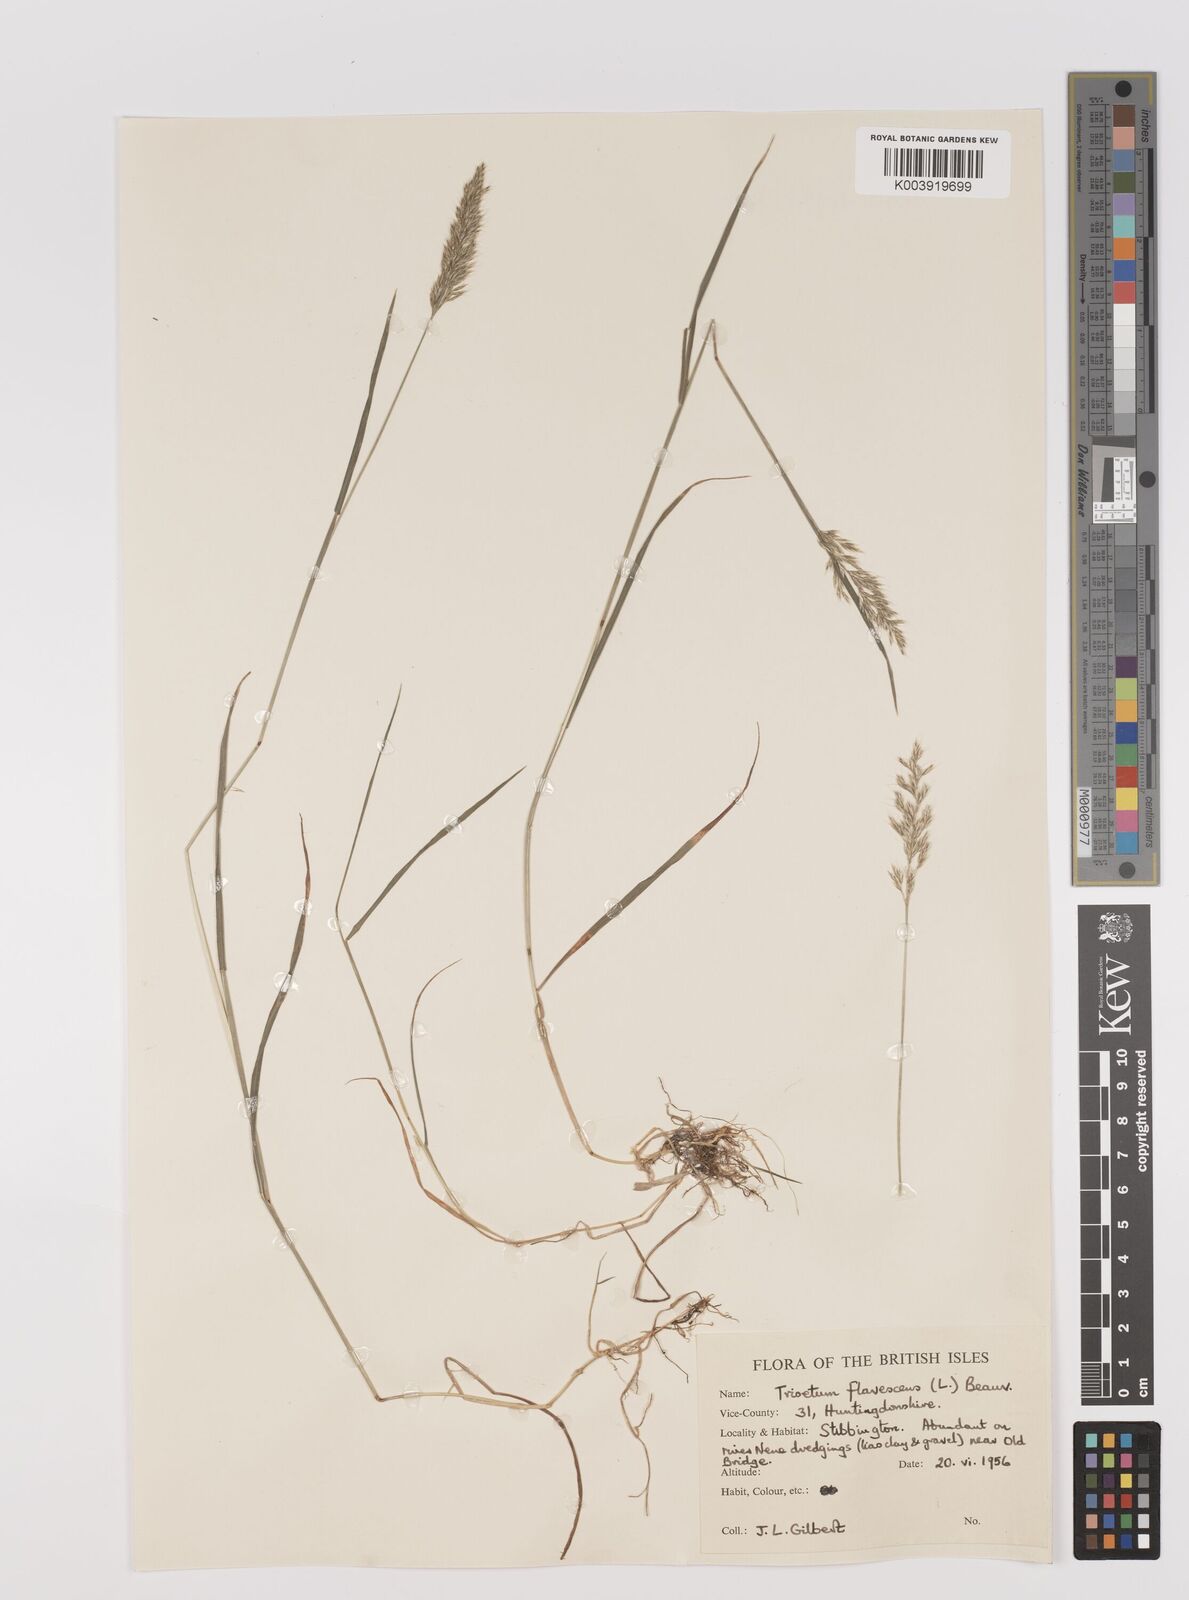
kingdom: Plantae
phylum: Tracheophyta
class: Liliopsida
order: Poales
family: Poaceae
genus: Trisetum
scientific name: Trisetum flavescens
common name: Yellow oat-grass
